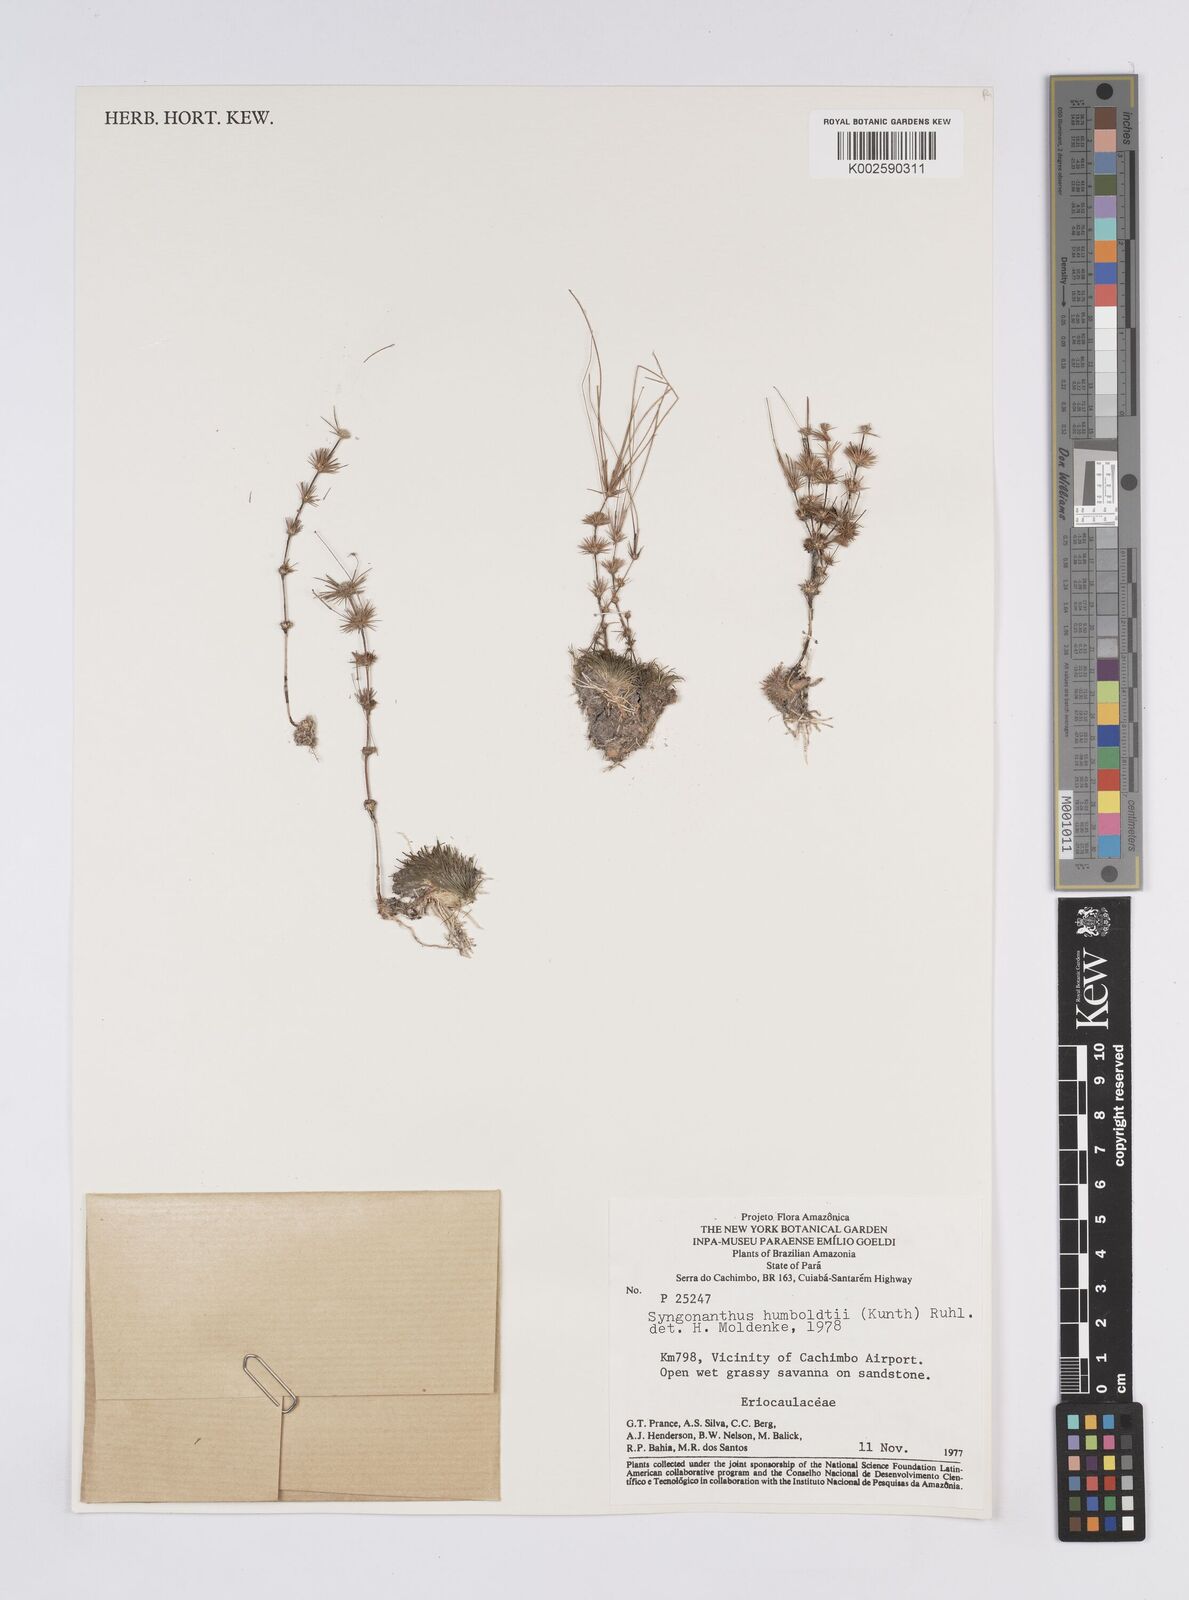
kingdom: Plantae
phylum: Tracheophyta
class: Liliopsida
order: Poales
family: Eriocaulaceae
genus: Syngonanthus
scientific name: Syngonanthus humboldtii
